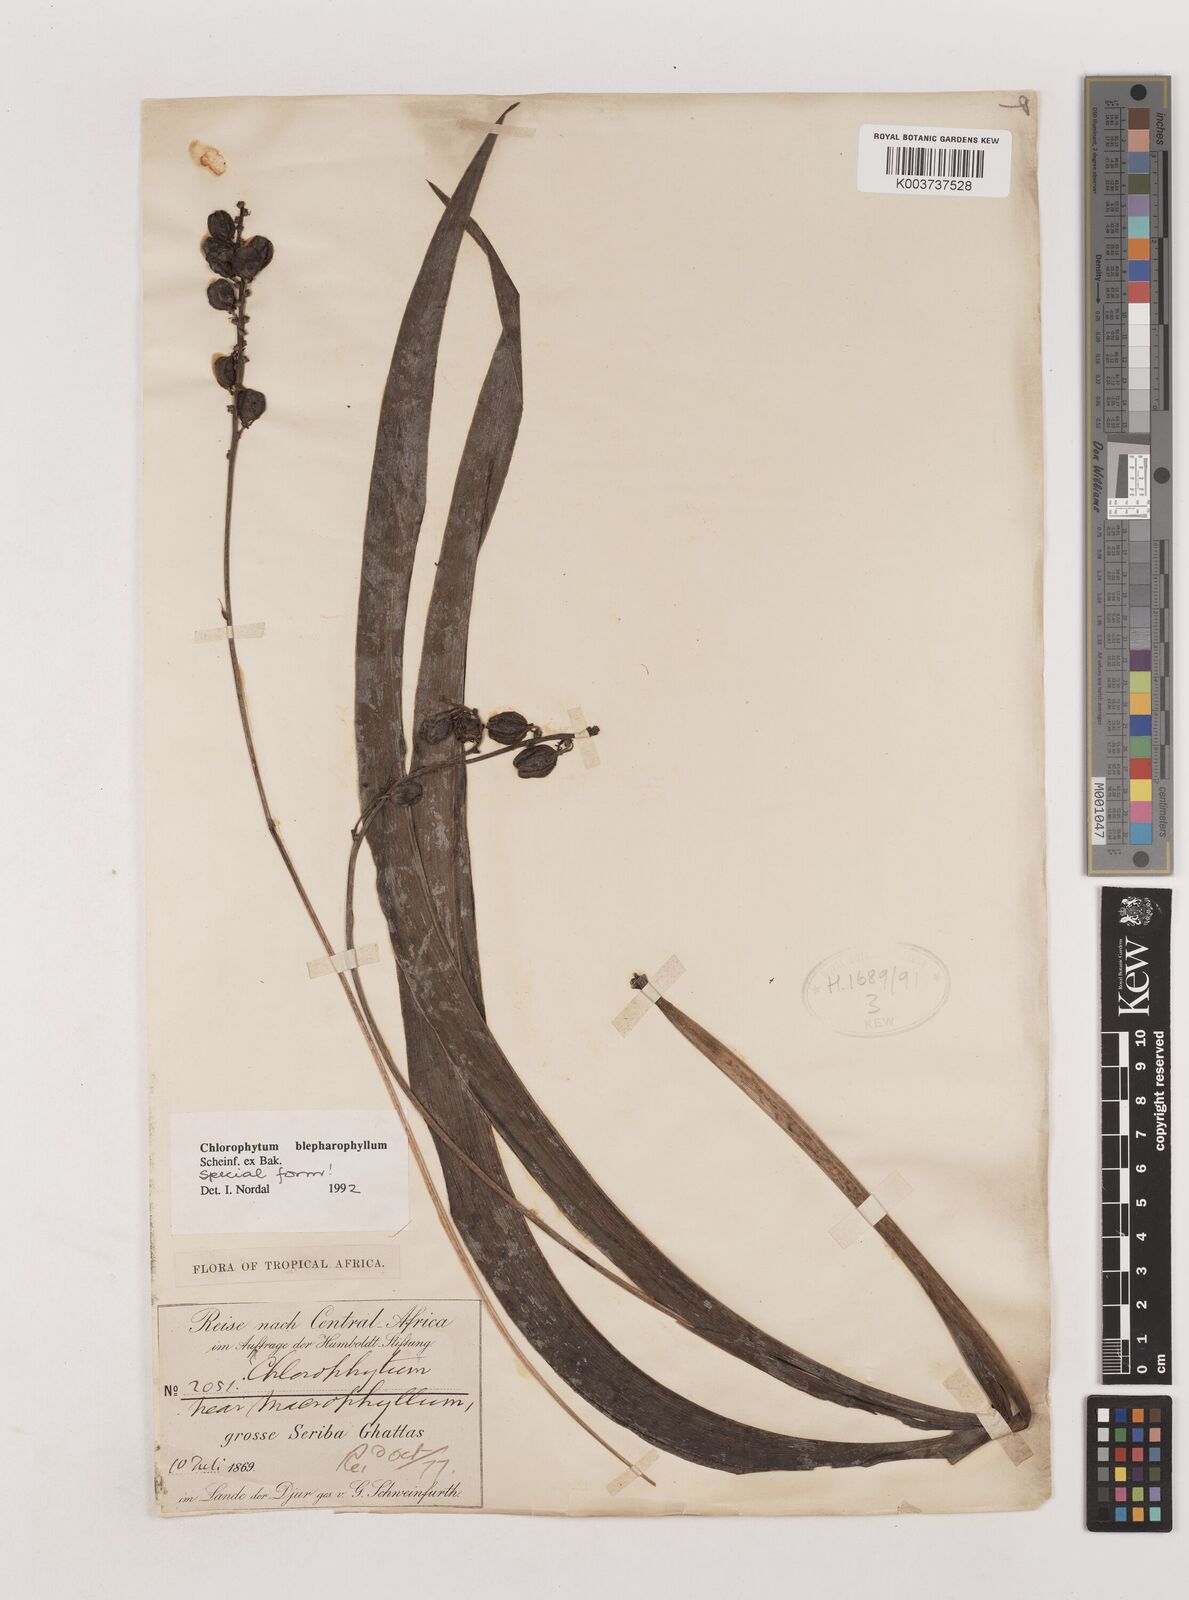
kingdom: Plantae
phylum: Tracheophyta
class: Liliopsida
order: Asparagales
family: Asparagaceae
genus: Chlorophytum
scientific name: Chlorophytum blepharophyllum
